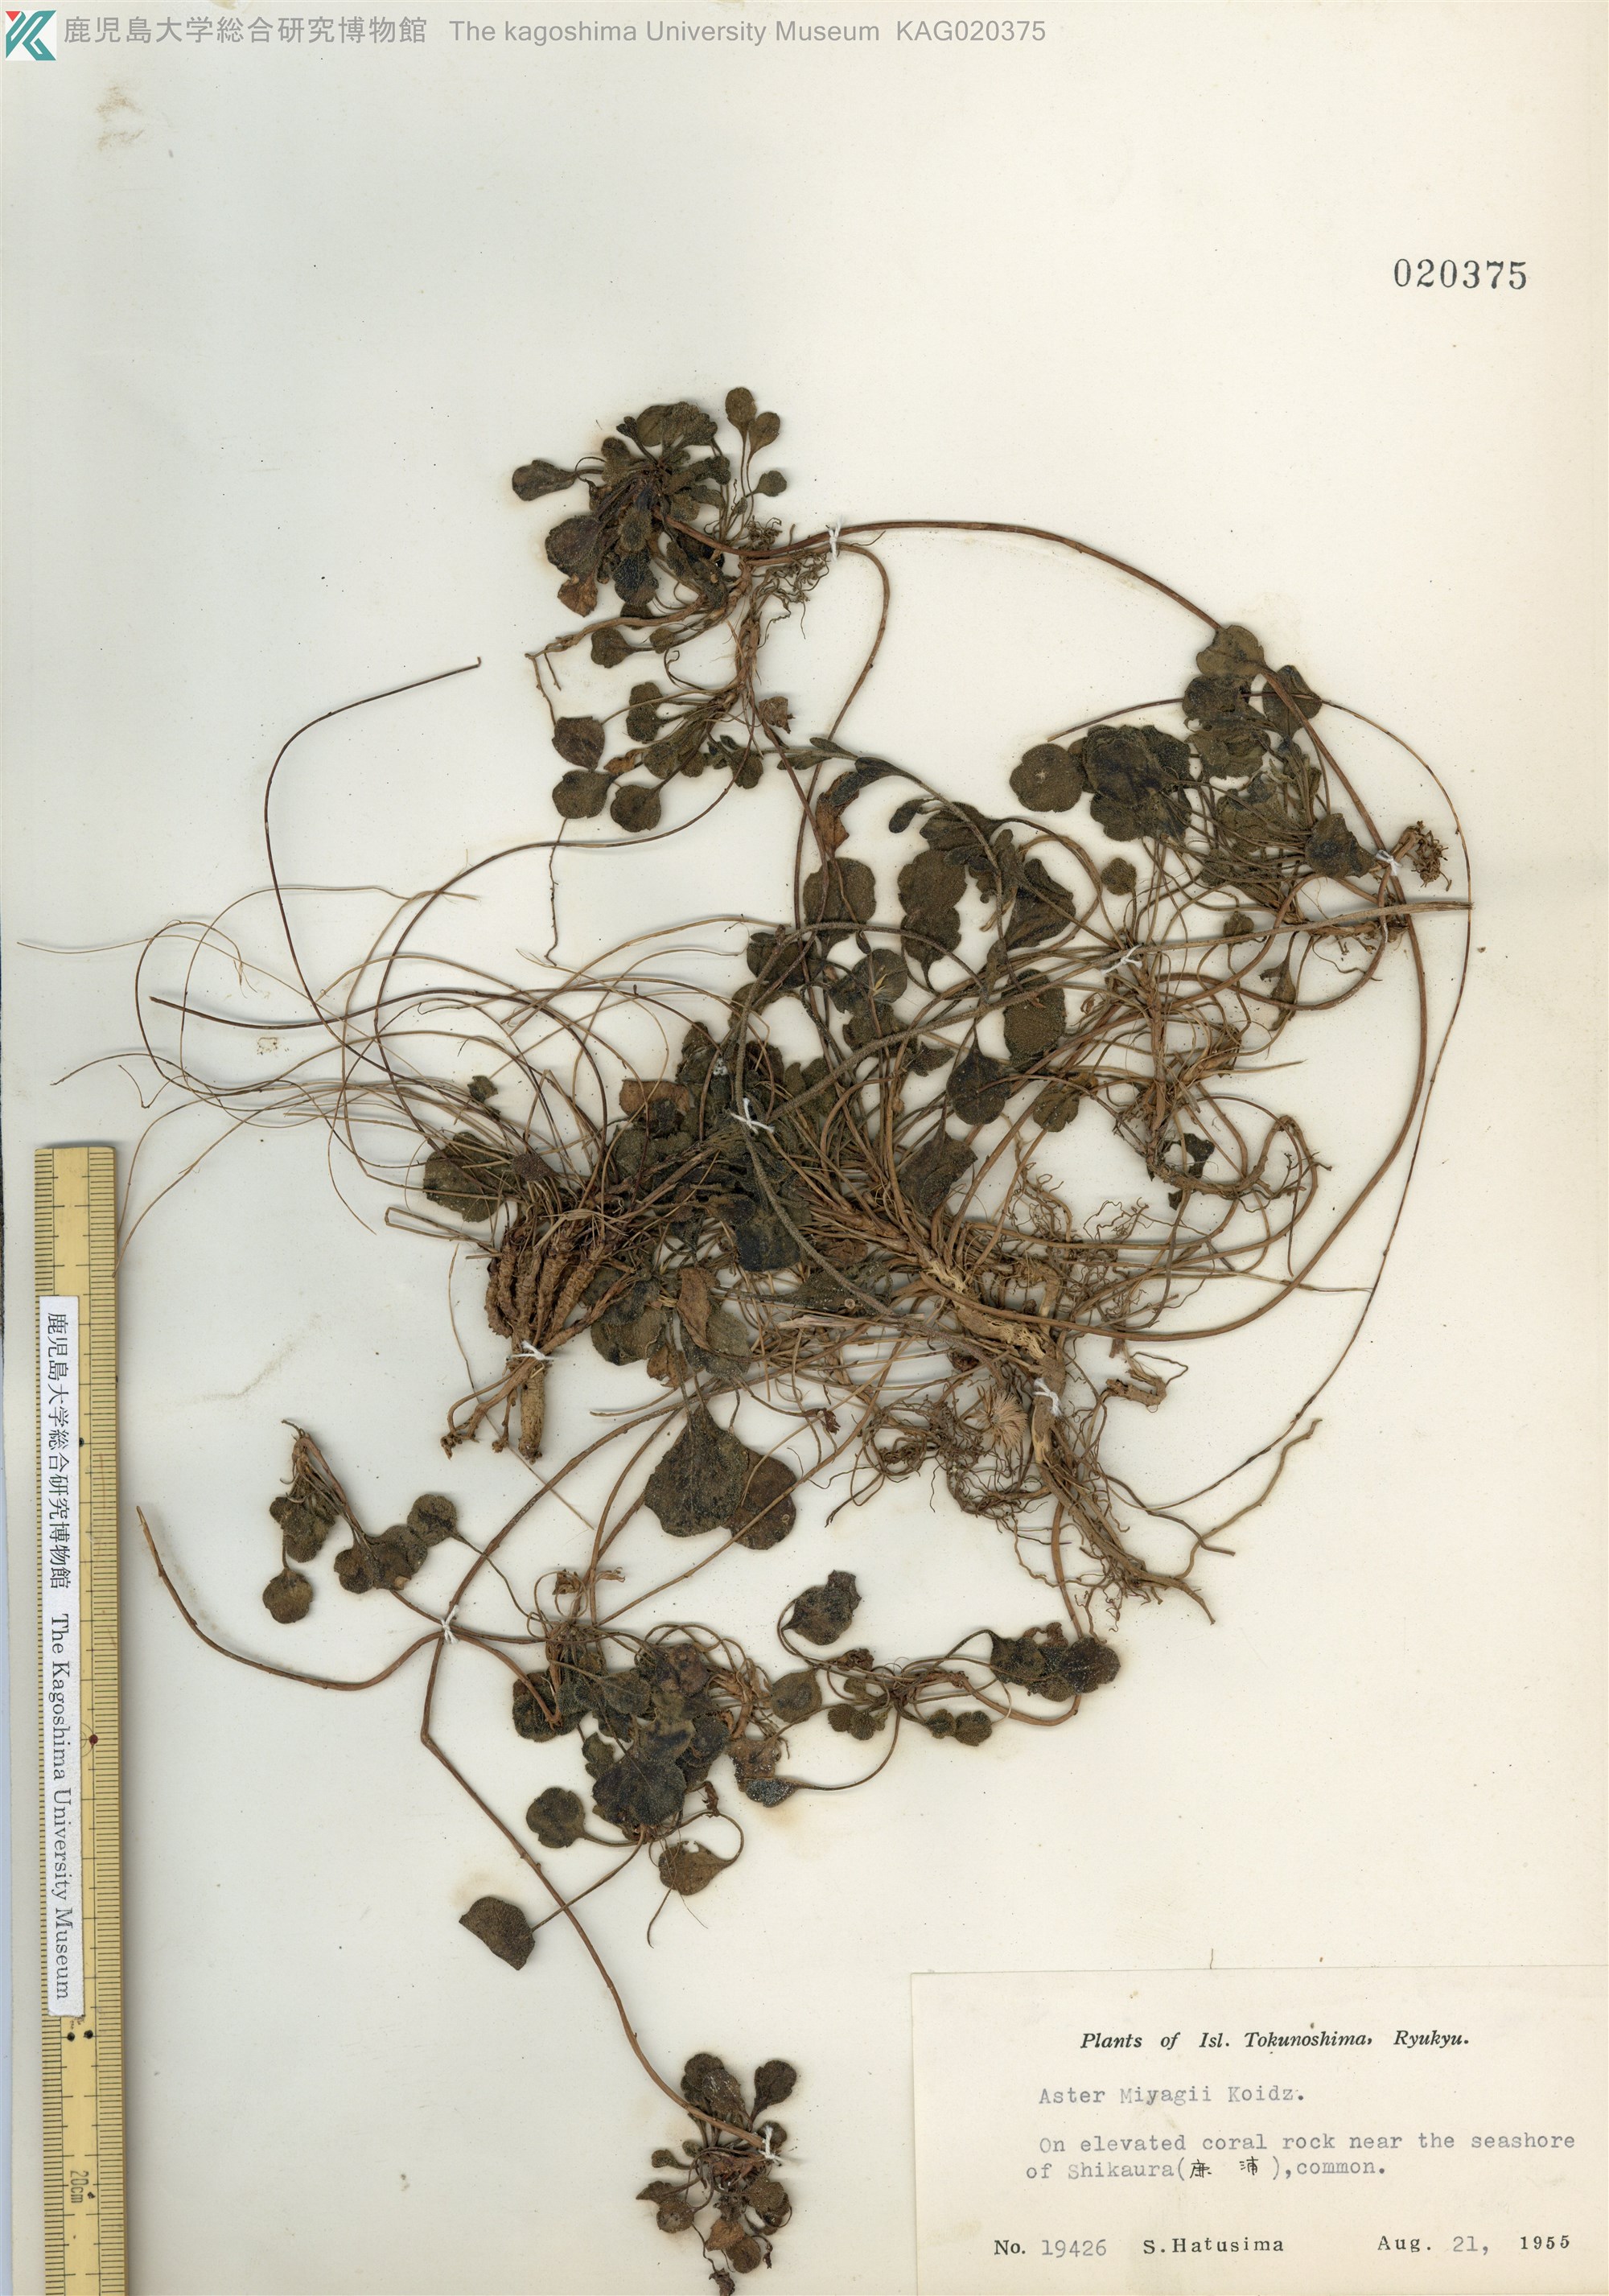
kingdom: Plantae
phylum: Tracheophyta
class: Magnoliopsida
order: Asterales
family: Asteraceae
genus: Aster
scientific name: Aster miyagii
